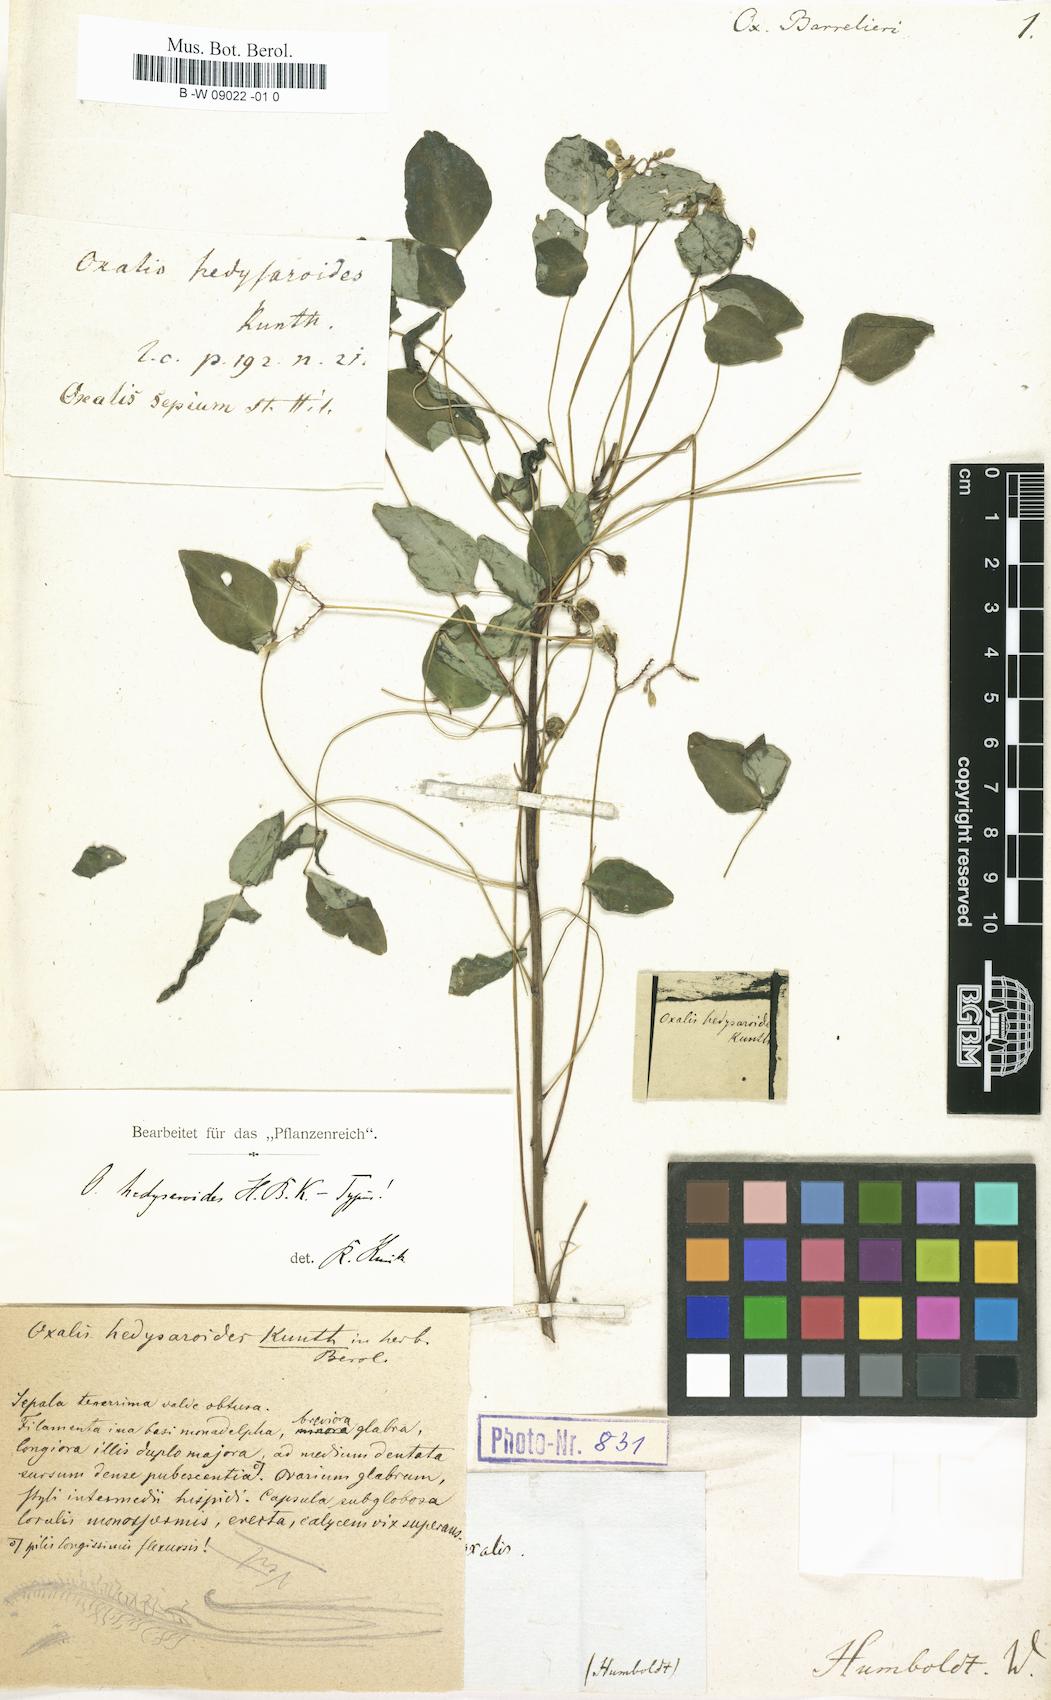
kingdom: Plantae
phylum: Tracheophyta
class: Magnoliopsida
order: Oxalidales
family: Oxalidaceae
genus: Oxalis
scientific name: Oxalis barrelieri
